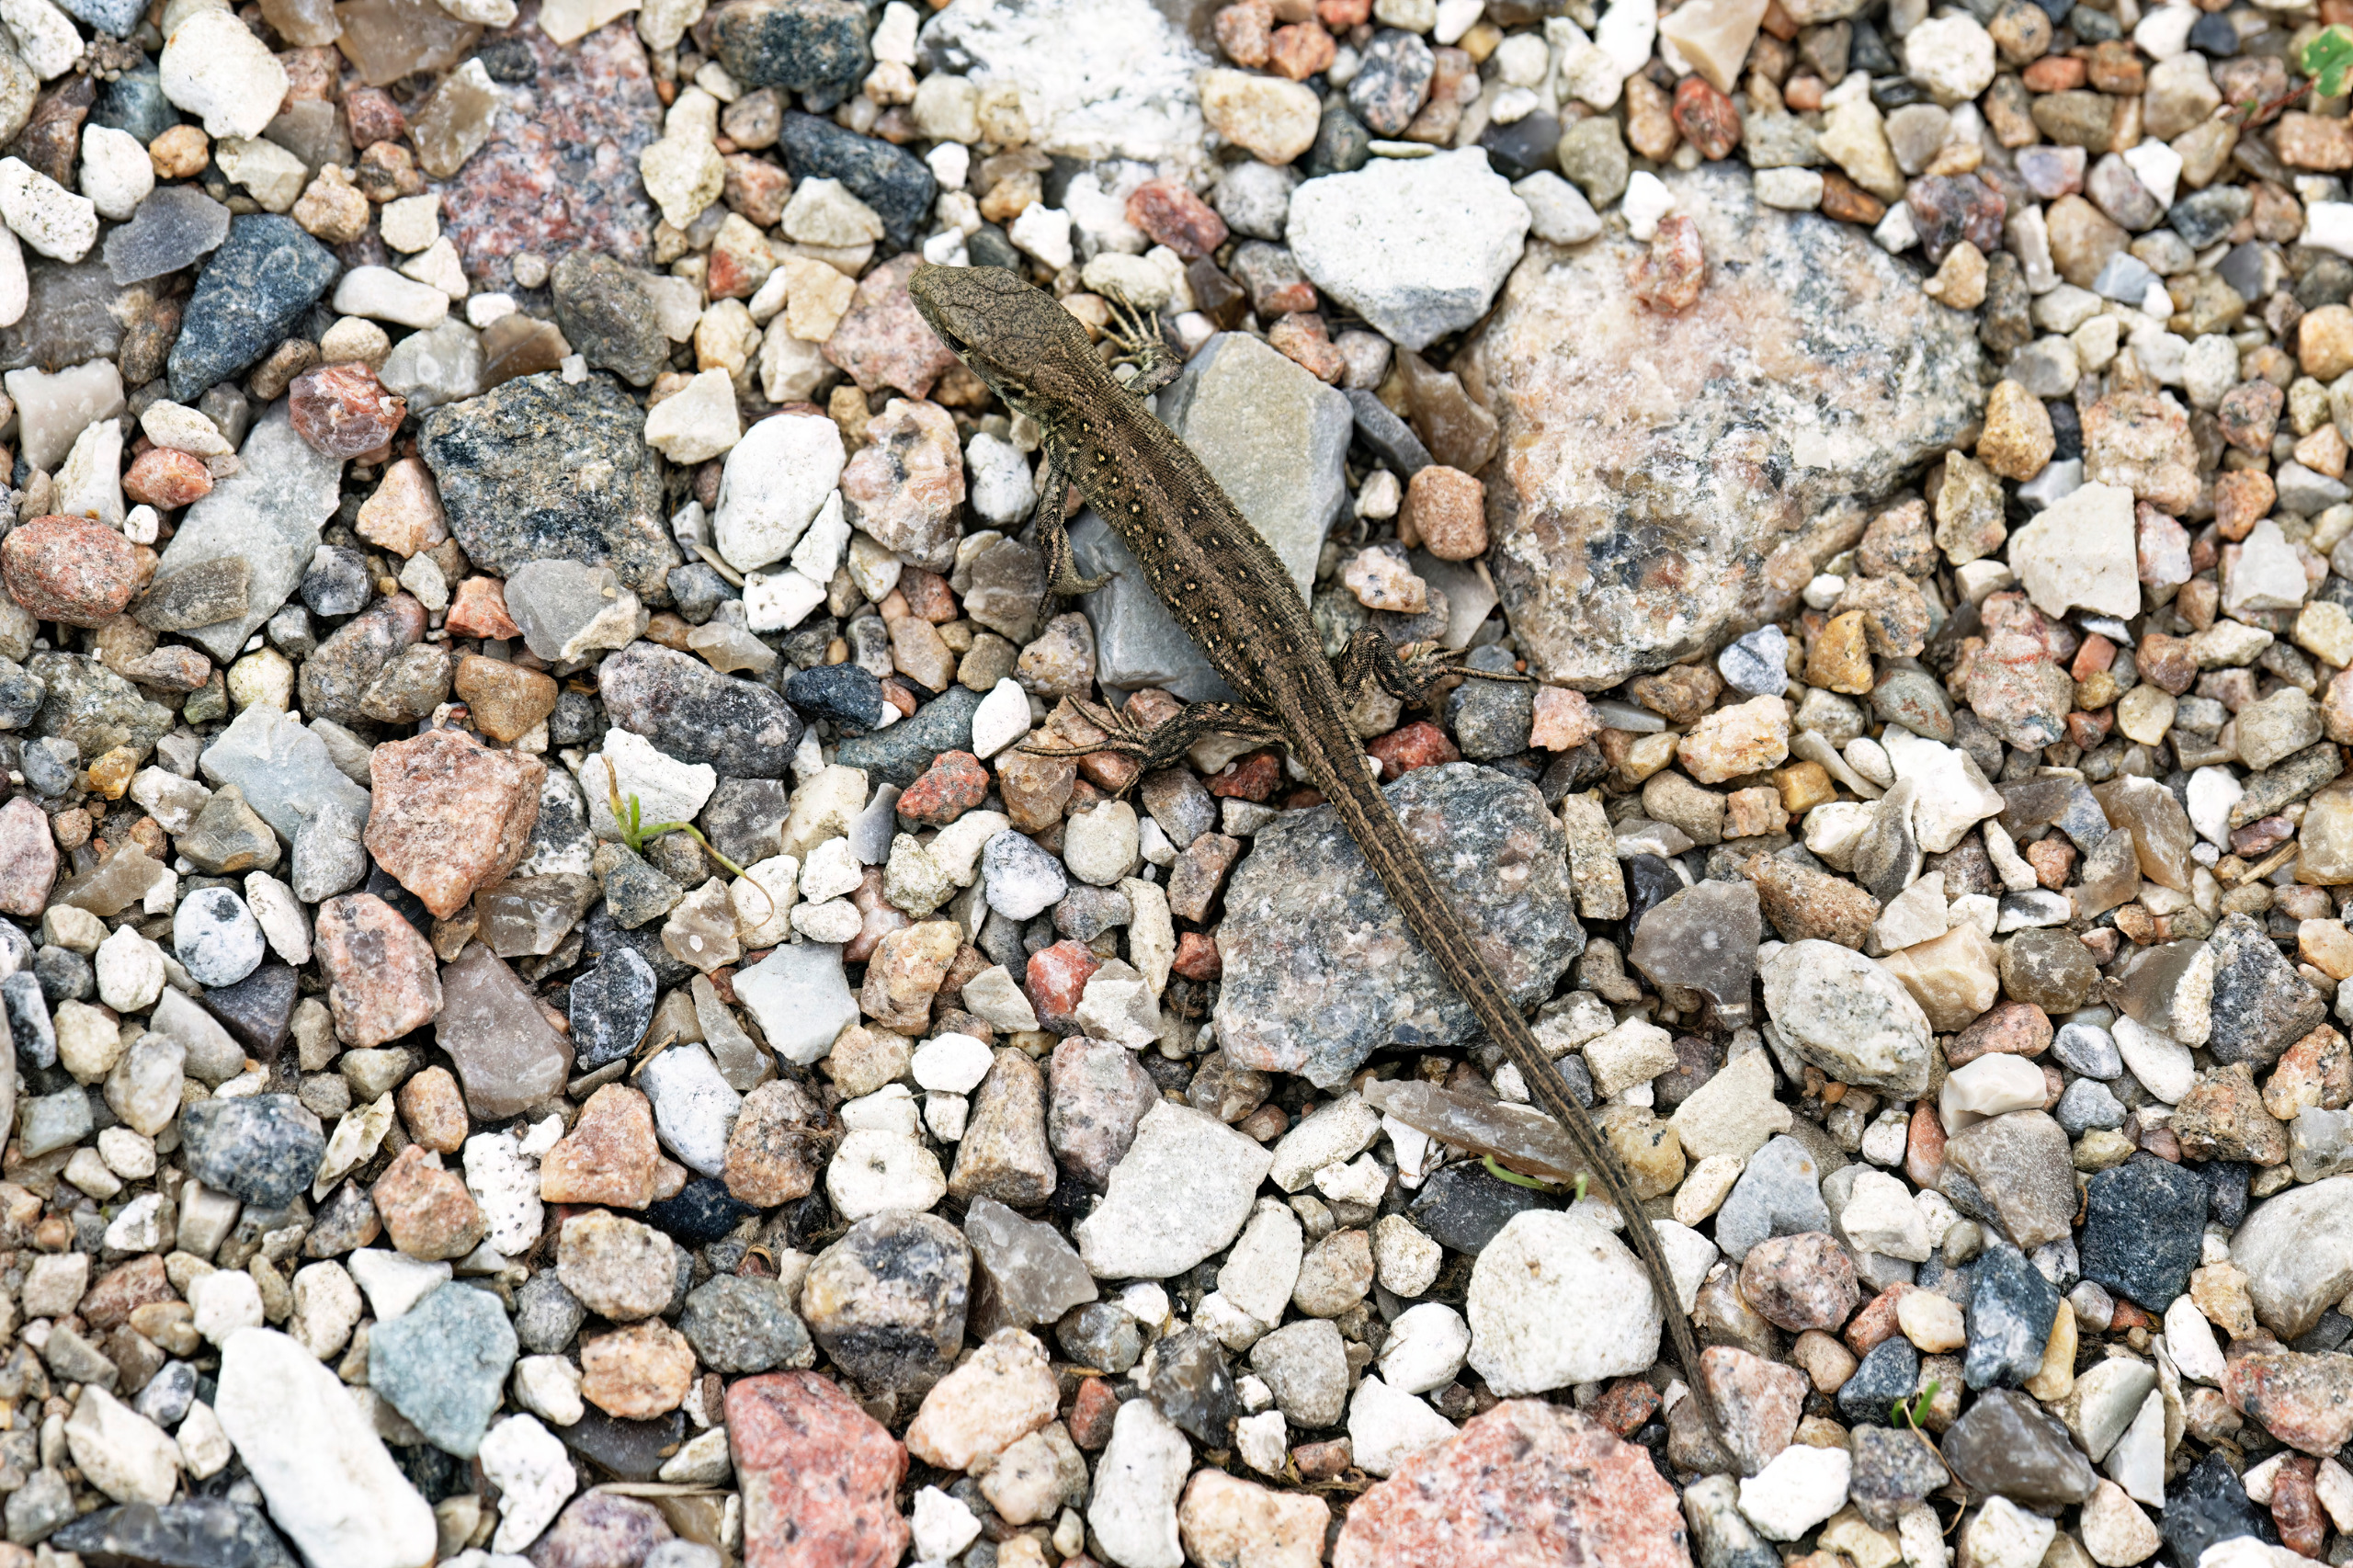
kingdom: Animalia
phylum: Chordata
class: Squamata
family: Lacertidae
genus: Lacerta
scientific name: Lacerta agilis
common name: Markfirben
